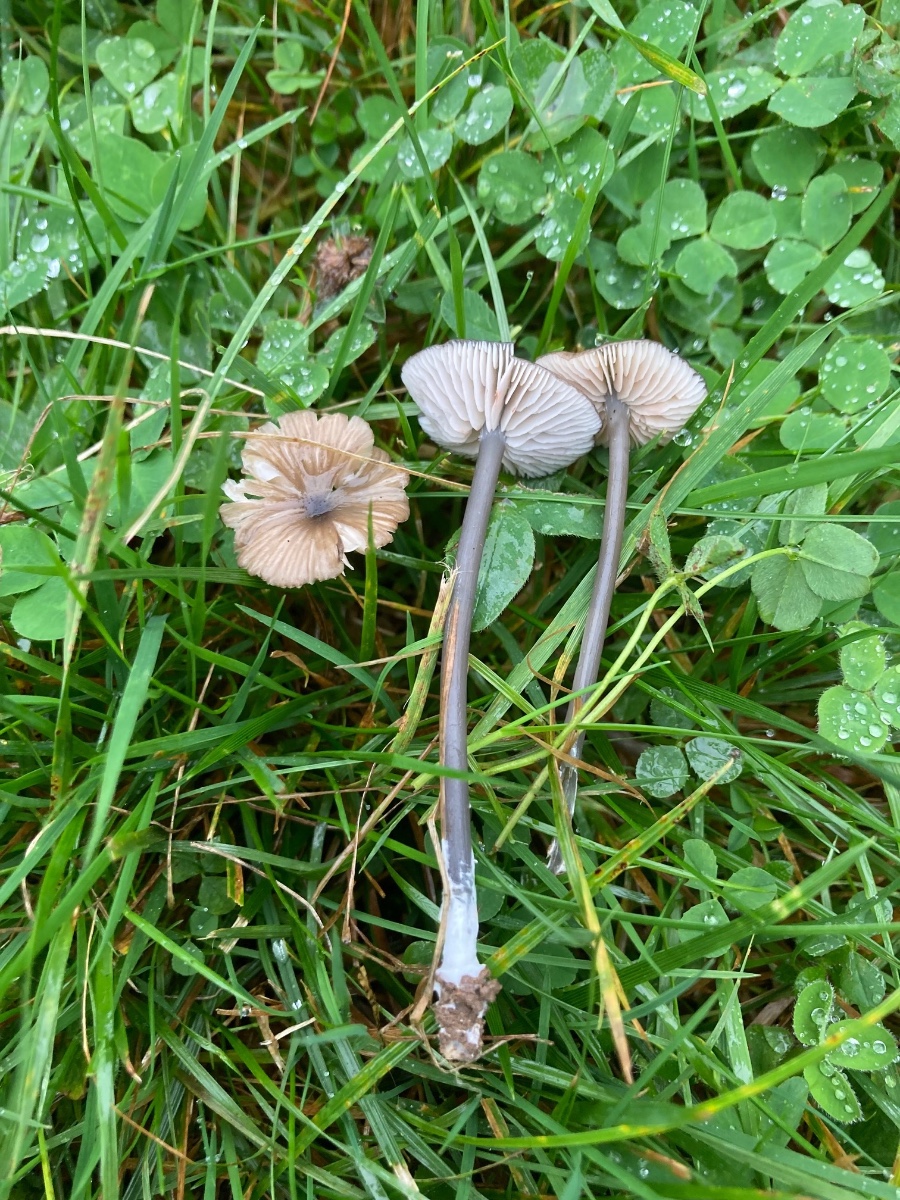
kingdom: Fungi
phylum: Basidiomycota
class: Agaricomycetes
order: Agaricales
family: Entolomataceae
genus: Entoloma
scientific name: Entoloma
